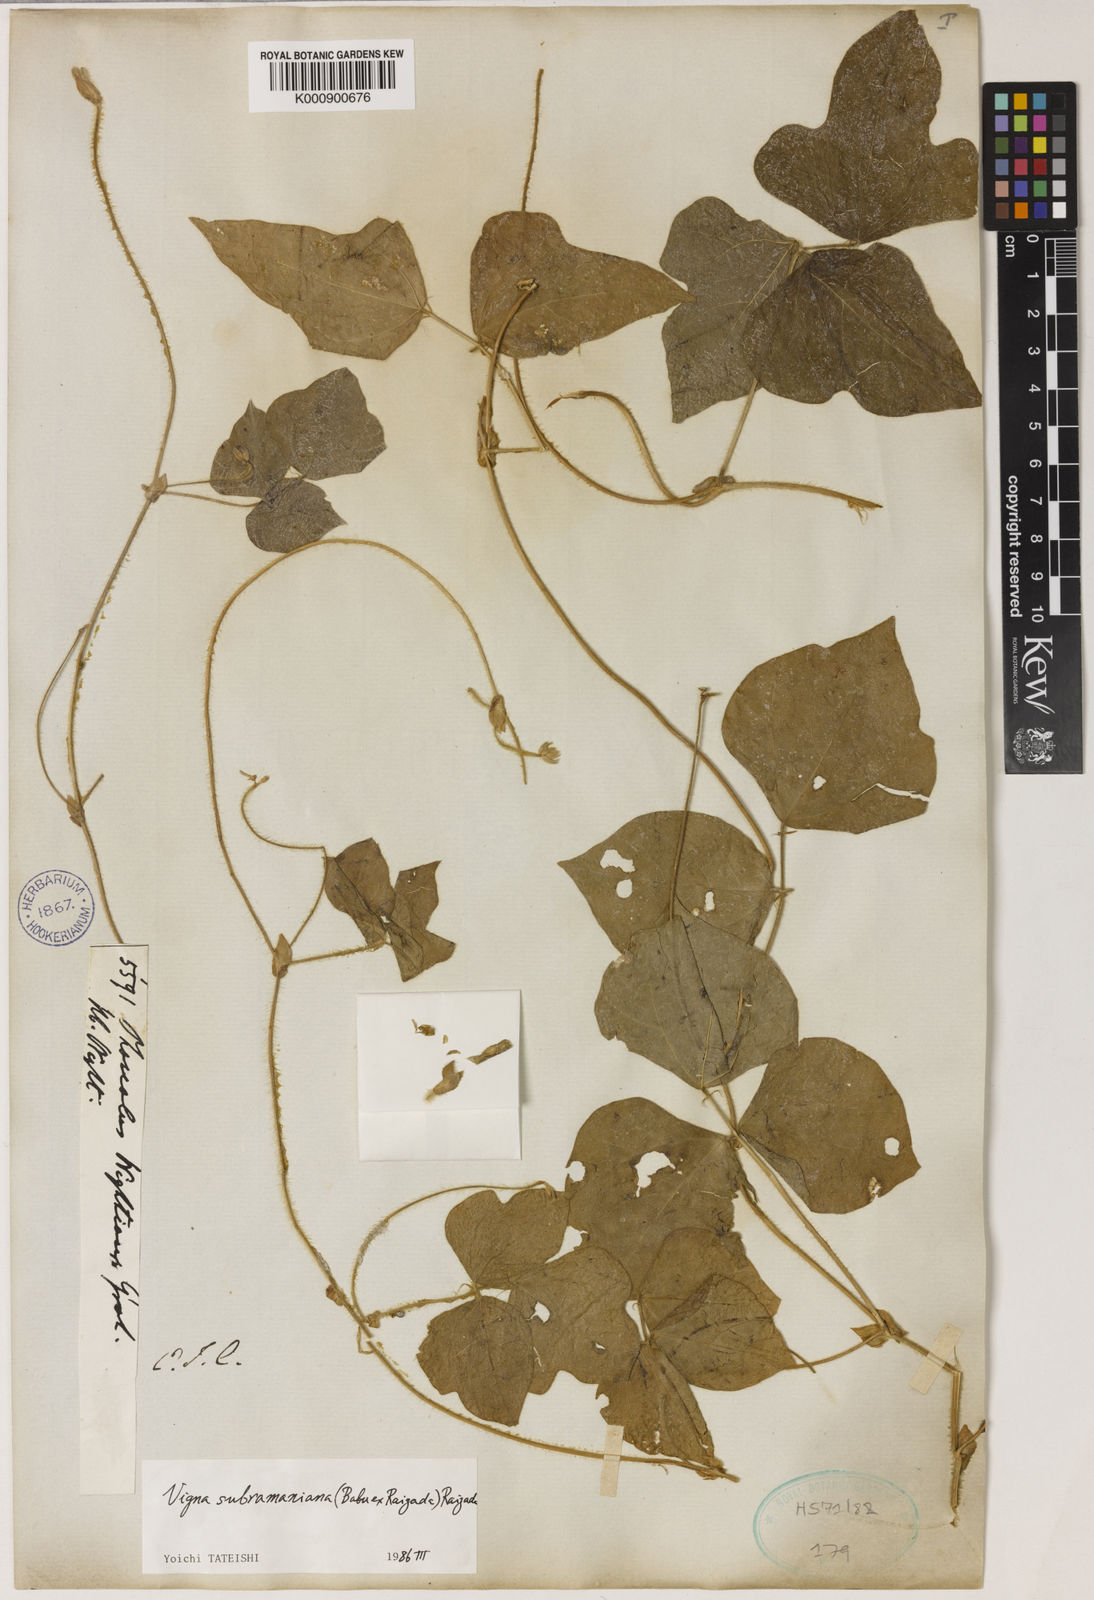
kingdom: Plantae
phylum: Tracheophyta
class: Magnoliopsida
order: Fabales
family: Fabaceae
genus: Vigna
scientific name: Vigna subramaniana
